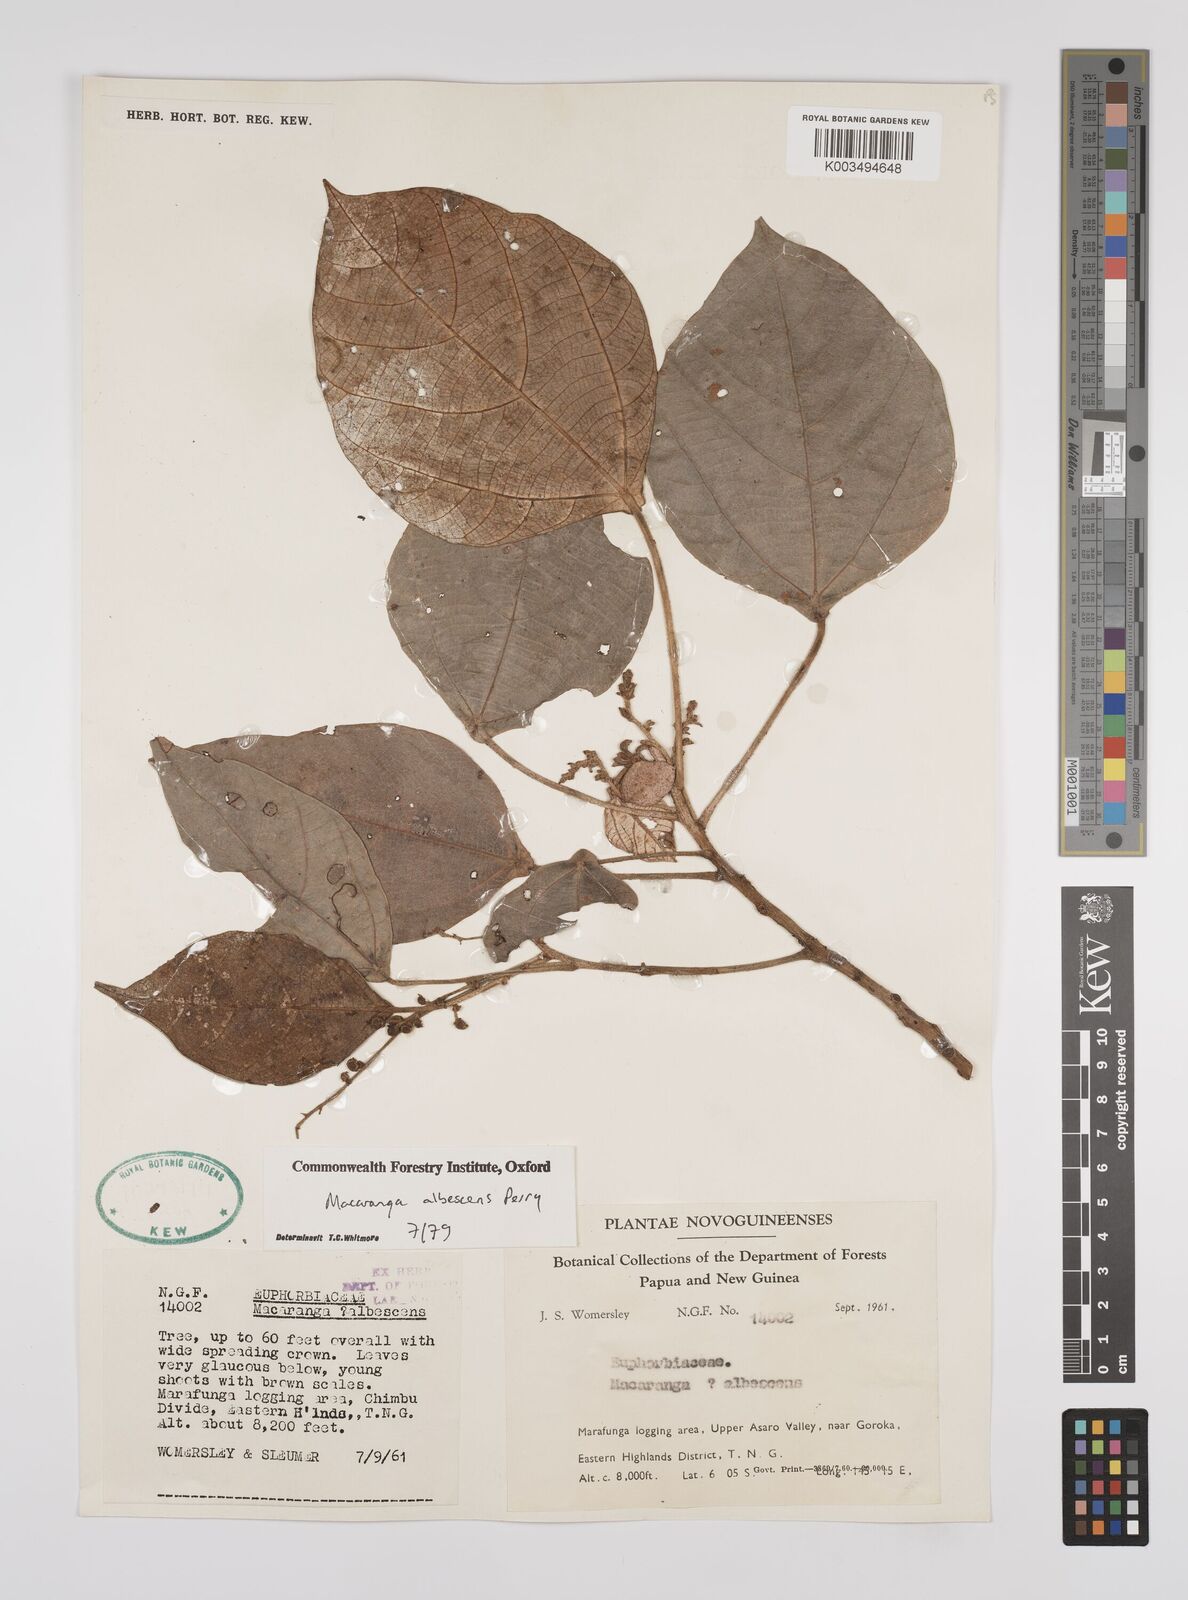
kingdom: Plantae
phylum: Tracheophyta
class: Magnoliopsida
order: Malpighiales
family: Euphorbiaceae
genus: Macaranga
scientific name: Macaranga albescens
